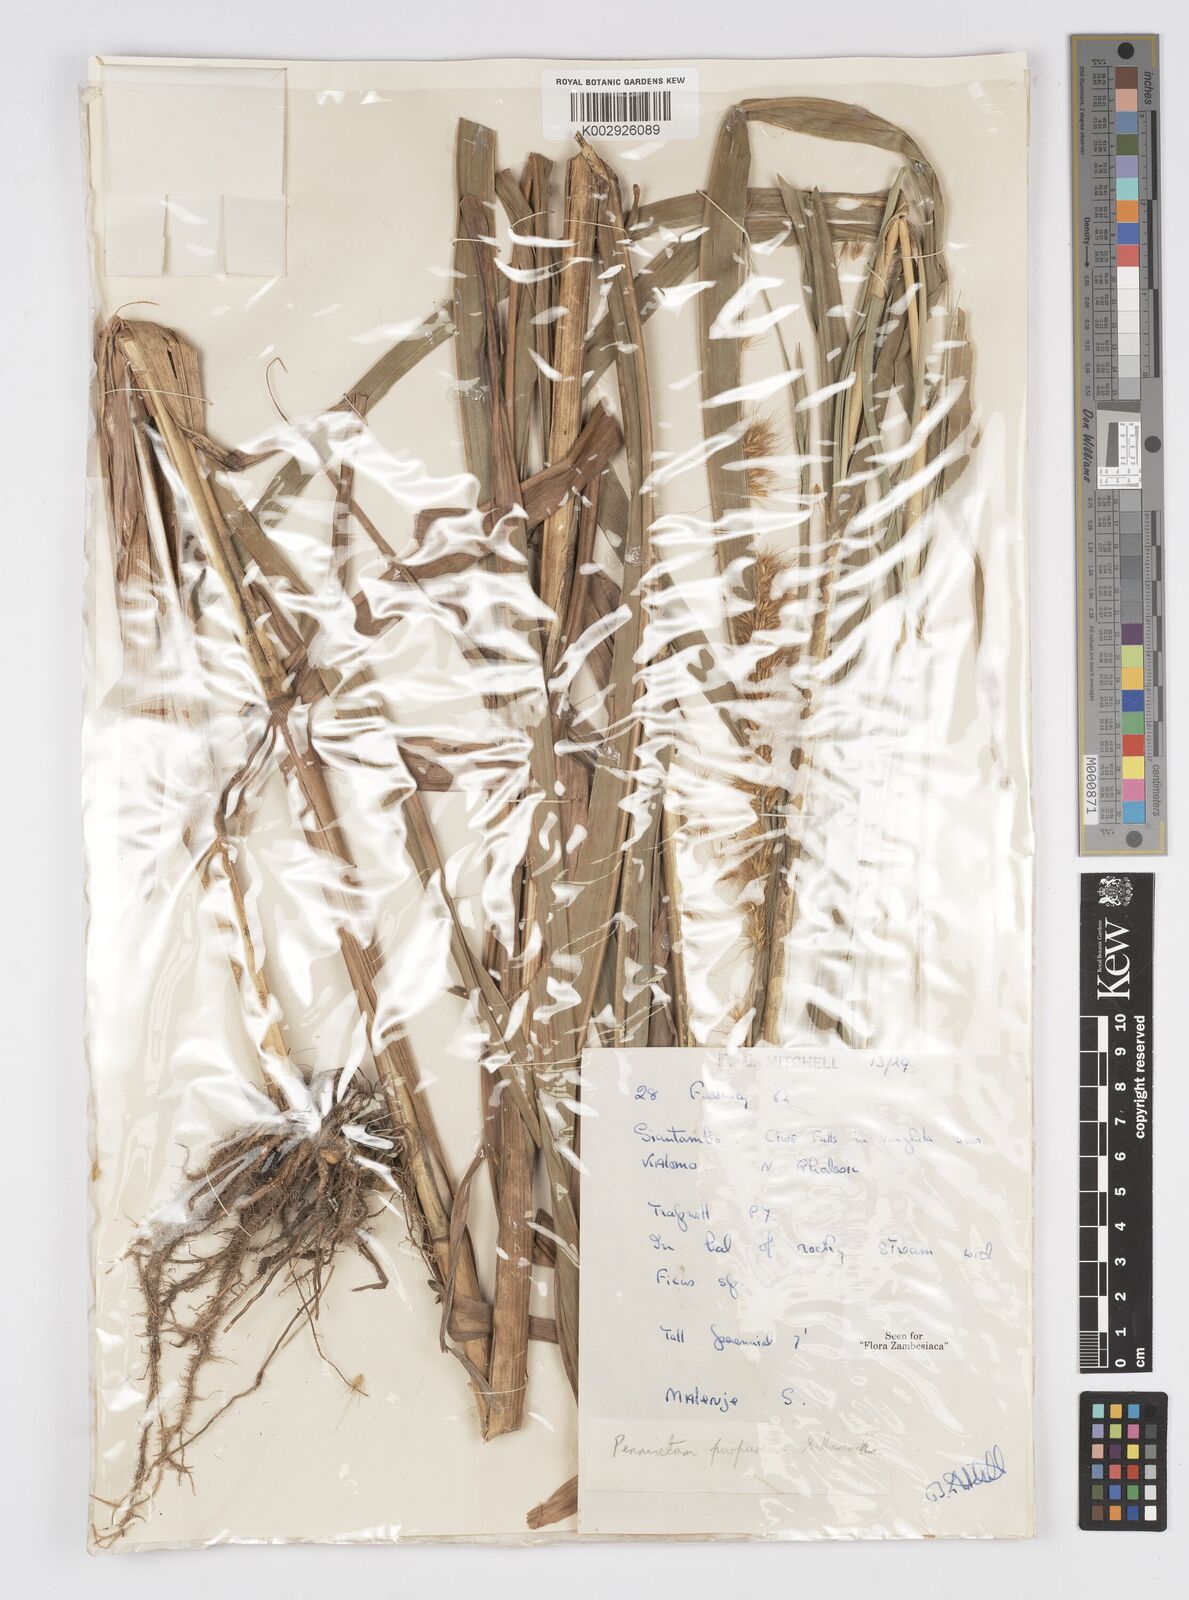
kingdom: Plantae
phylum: Tracheophyta
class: Liliopsida
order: Poales
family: Poaceae
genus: Cenchrus
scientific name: Cenchrus purpureus
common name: Elephant grass
